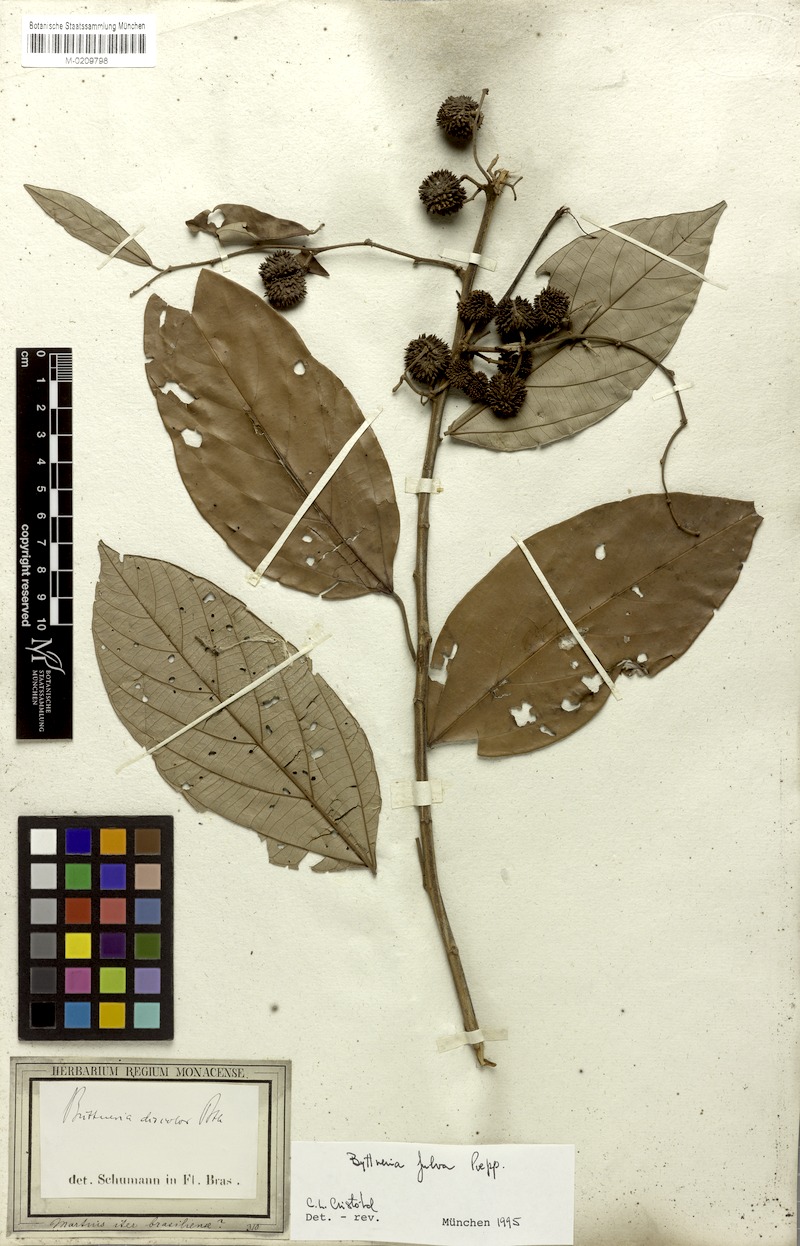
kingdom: Plantae
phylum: Tracheophyta
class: Magnoliopsida
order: Malvales
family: Malvaceae
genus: Byttneria
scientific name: Byttneria fulva
